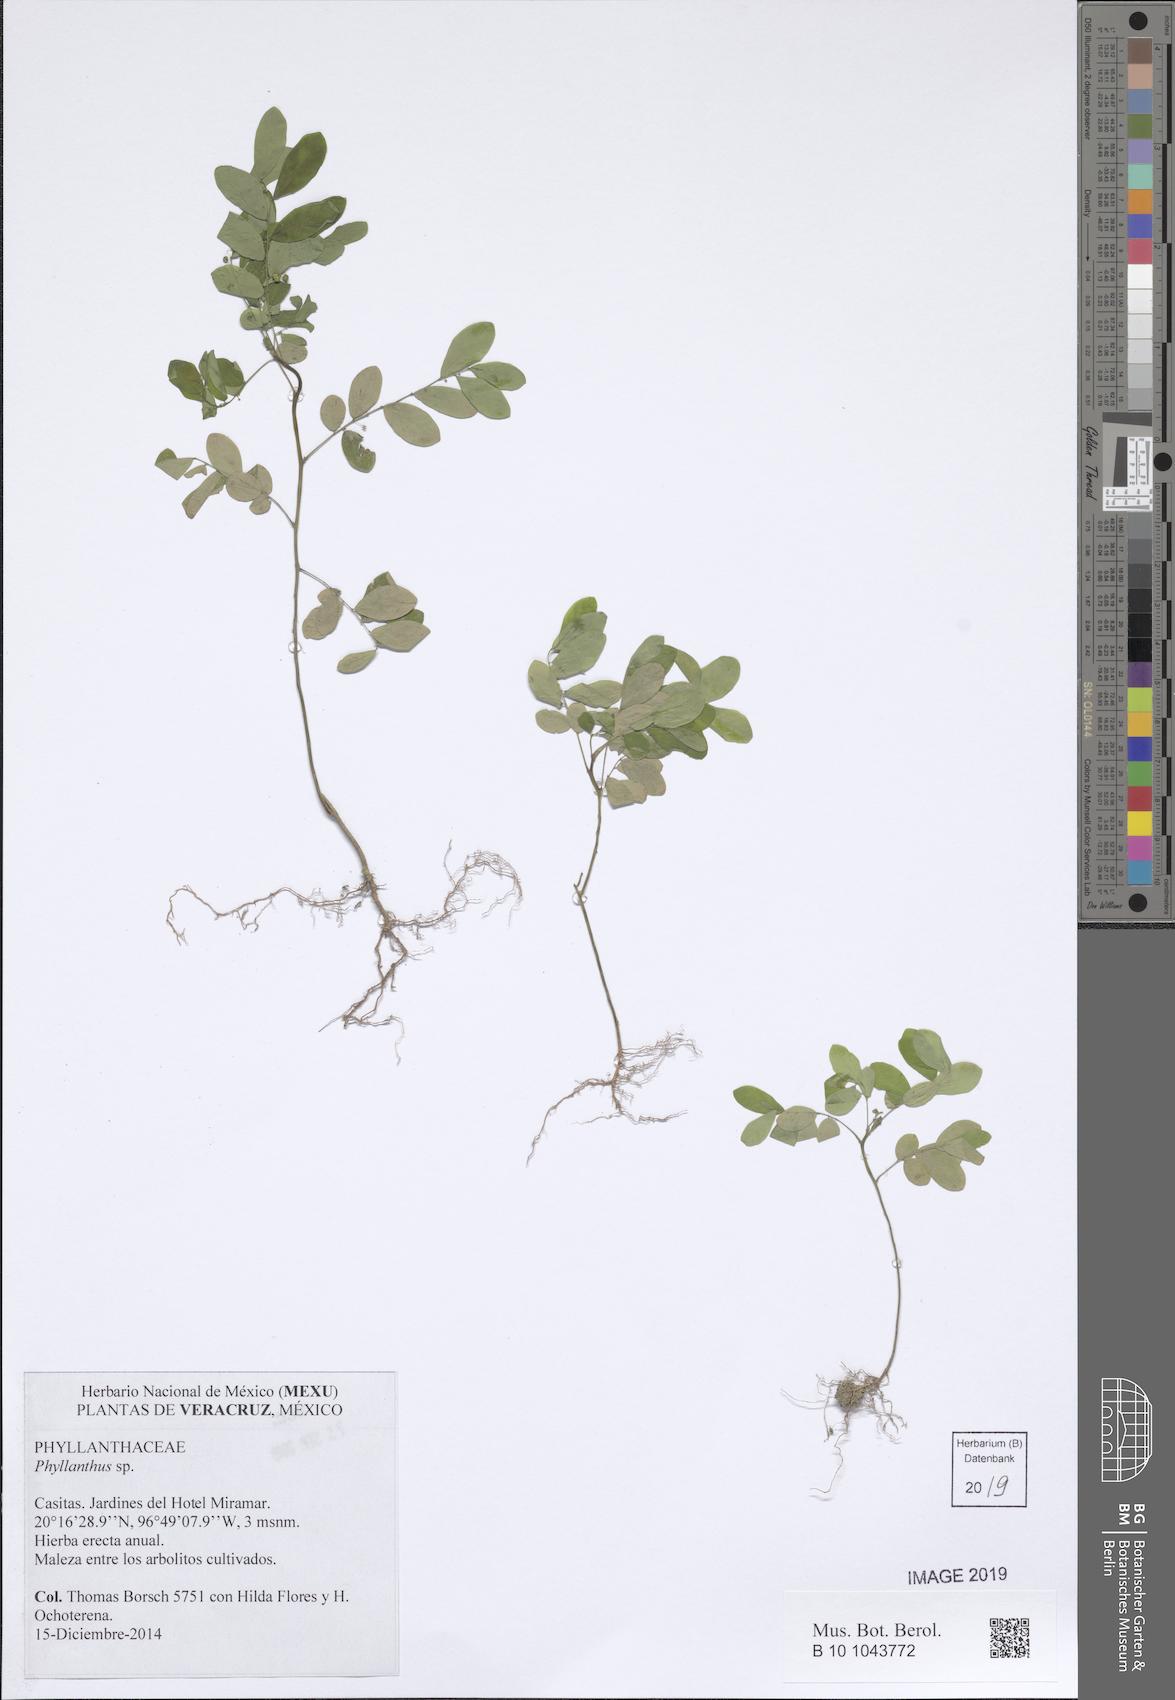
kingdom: Plantae
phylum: Tracheophyta
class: Magnoliopsida
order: Malpighiales
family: Phyllanthaceae
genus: Phyllanthus
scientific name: Phyllanthus
